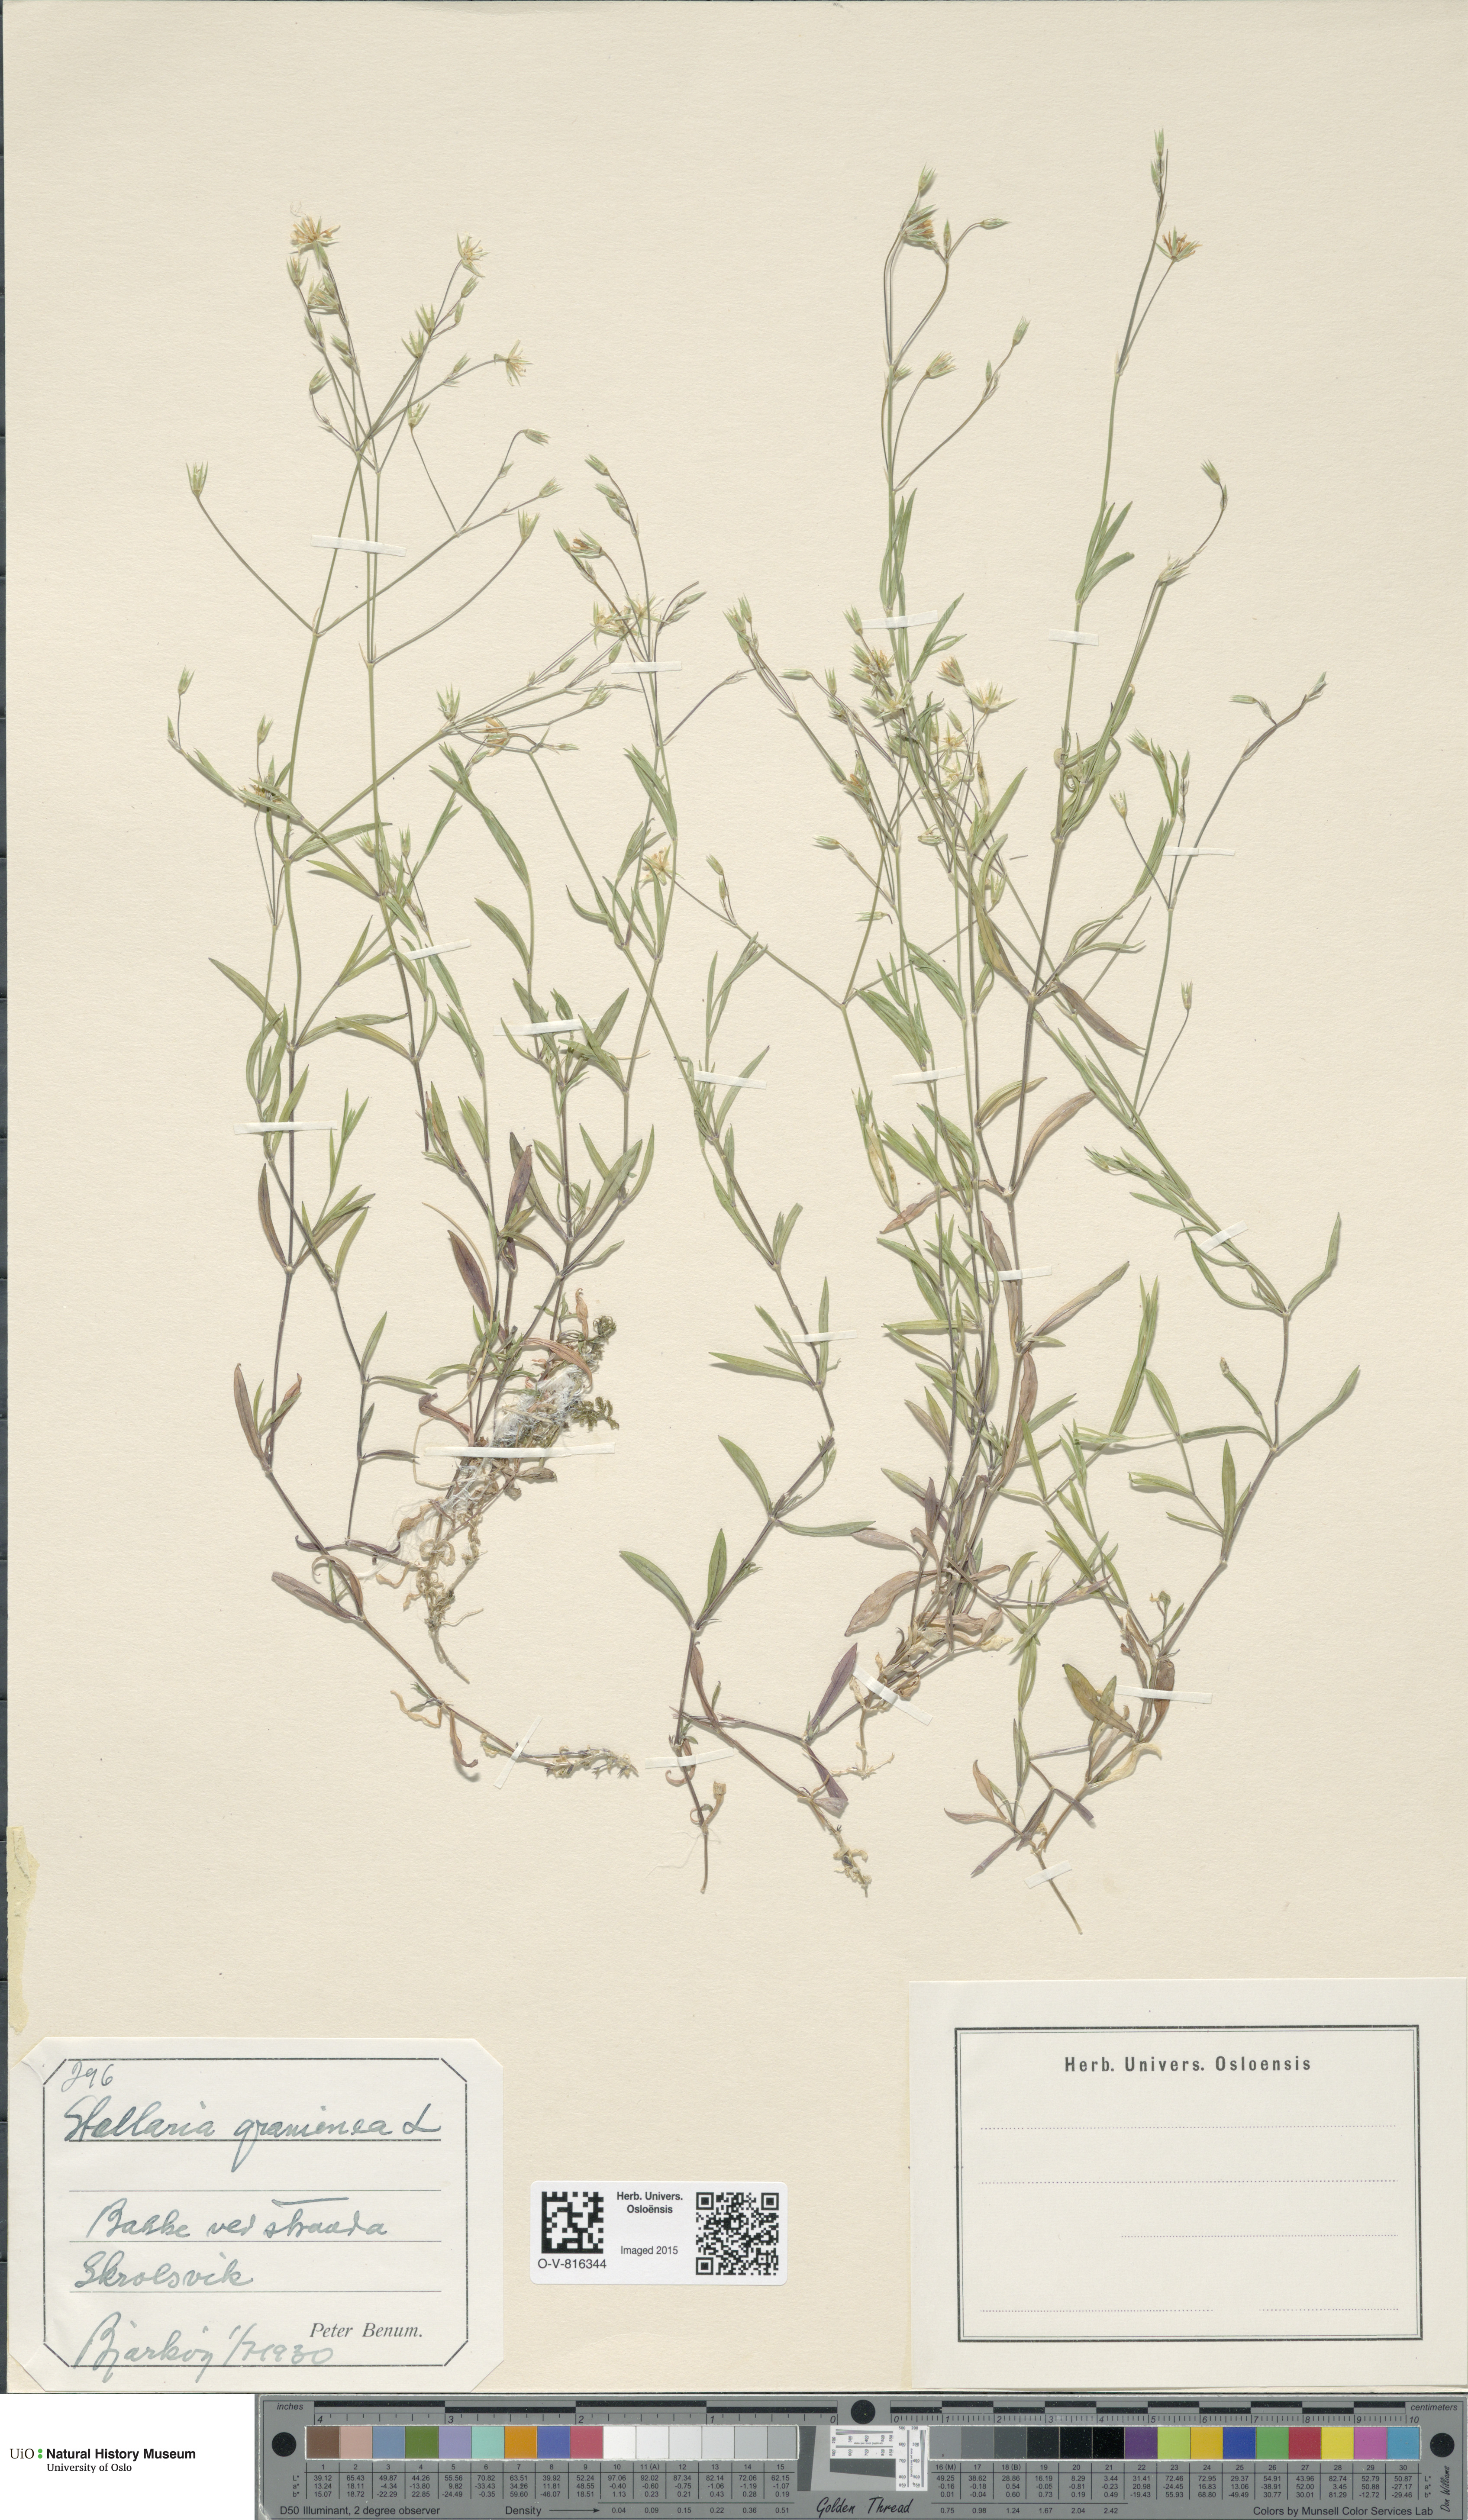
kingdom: Plantae
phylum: Tracheophyta
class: Magnoliopsida
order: Caryophyllales
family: Caryophyllaceae
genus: Stellaria
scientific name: Stellaria graminea
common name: Grass-like starwort
